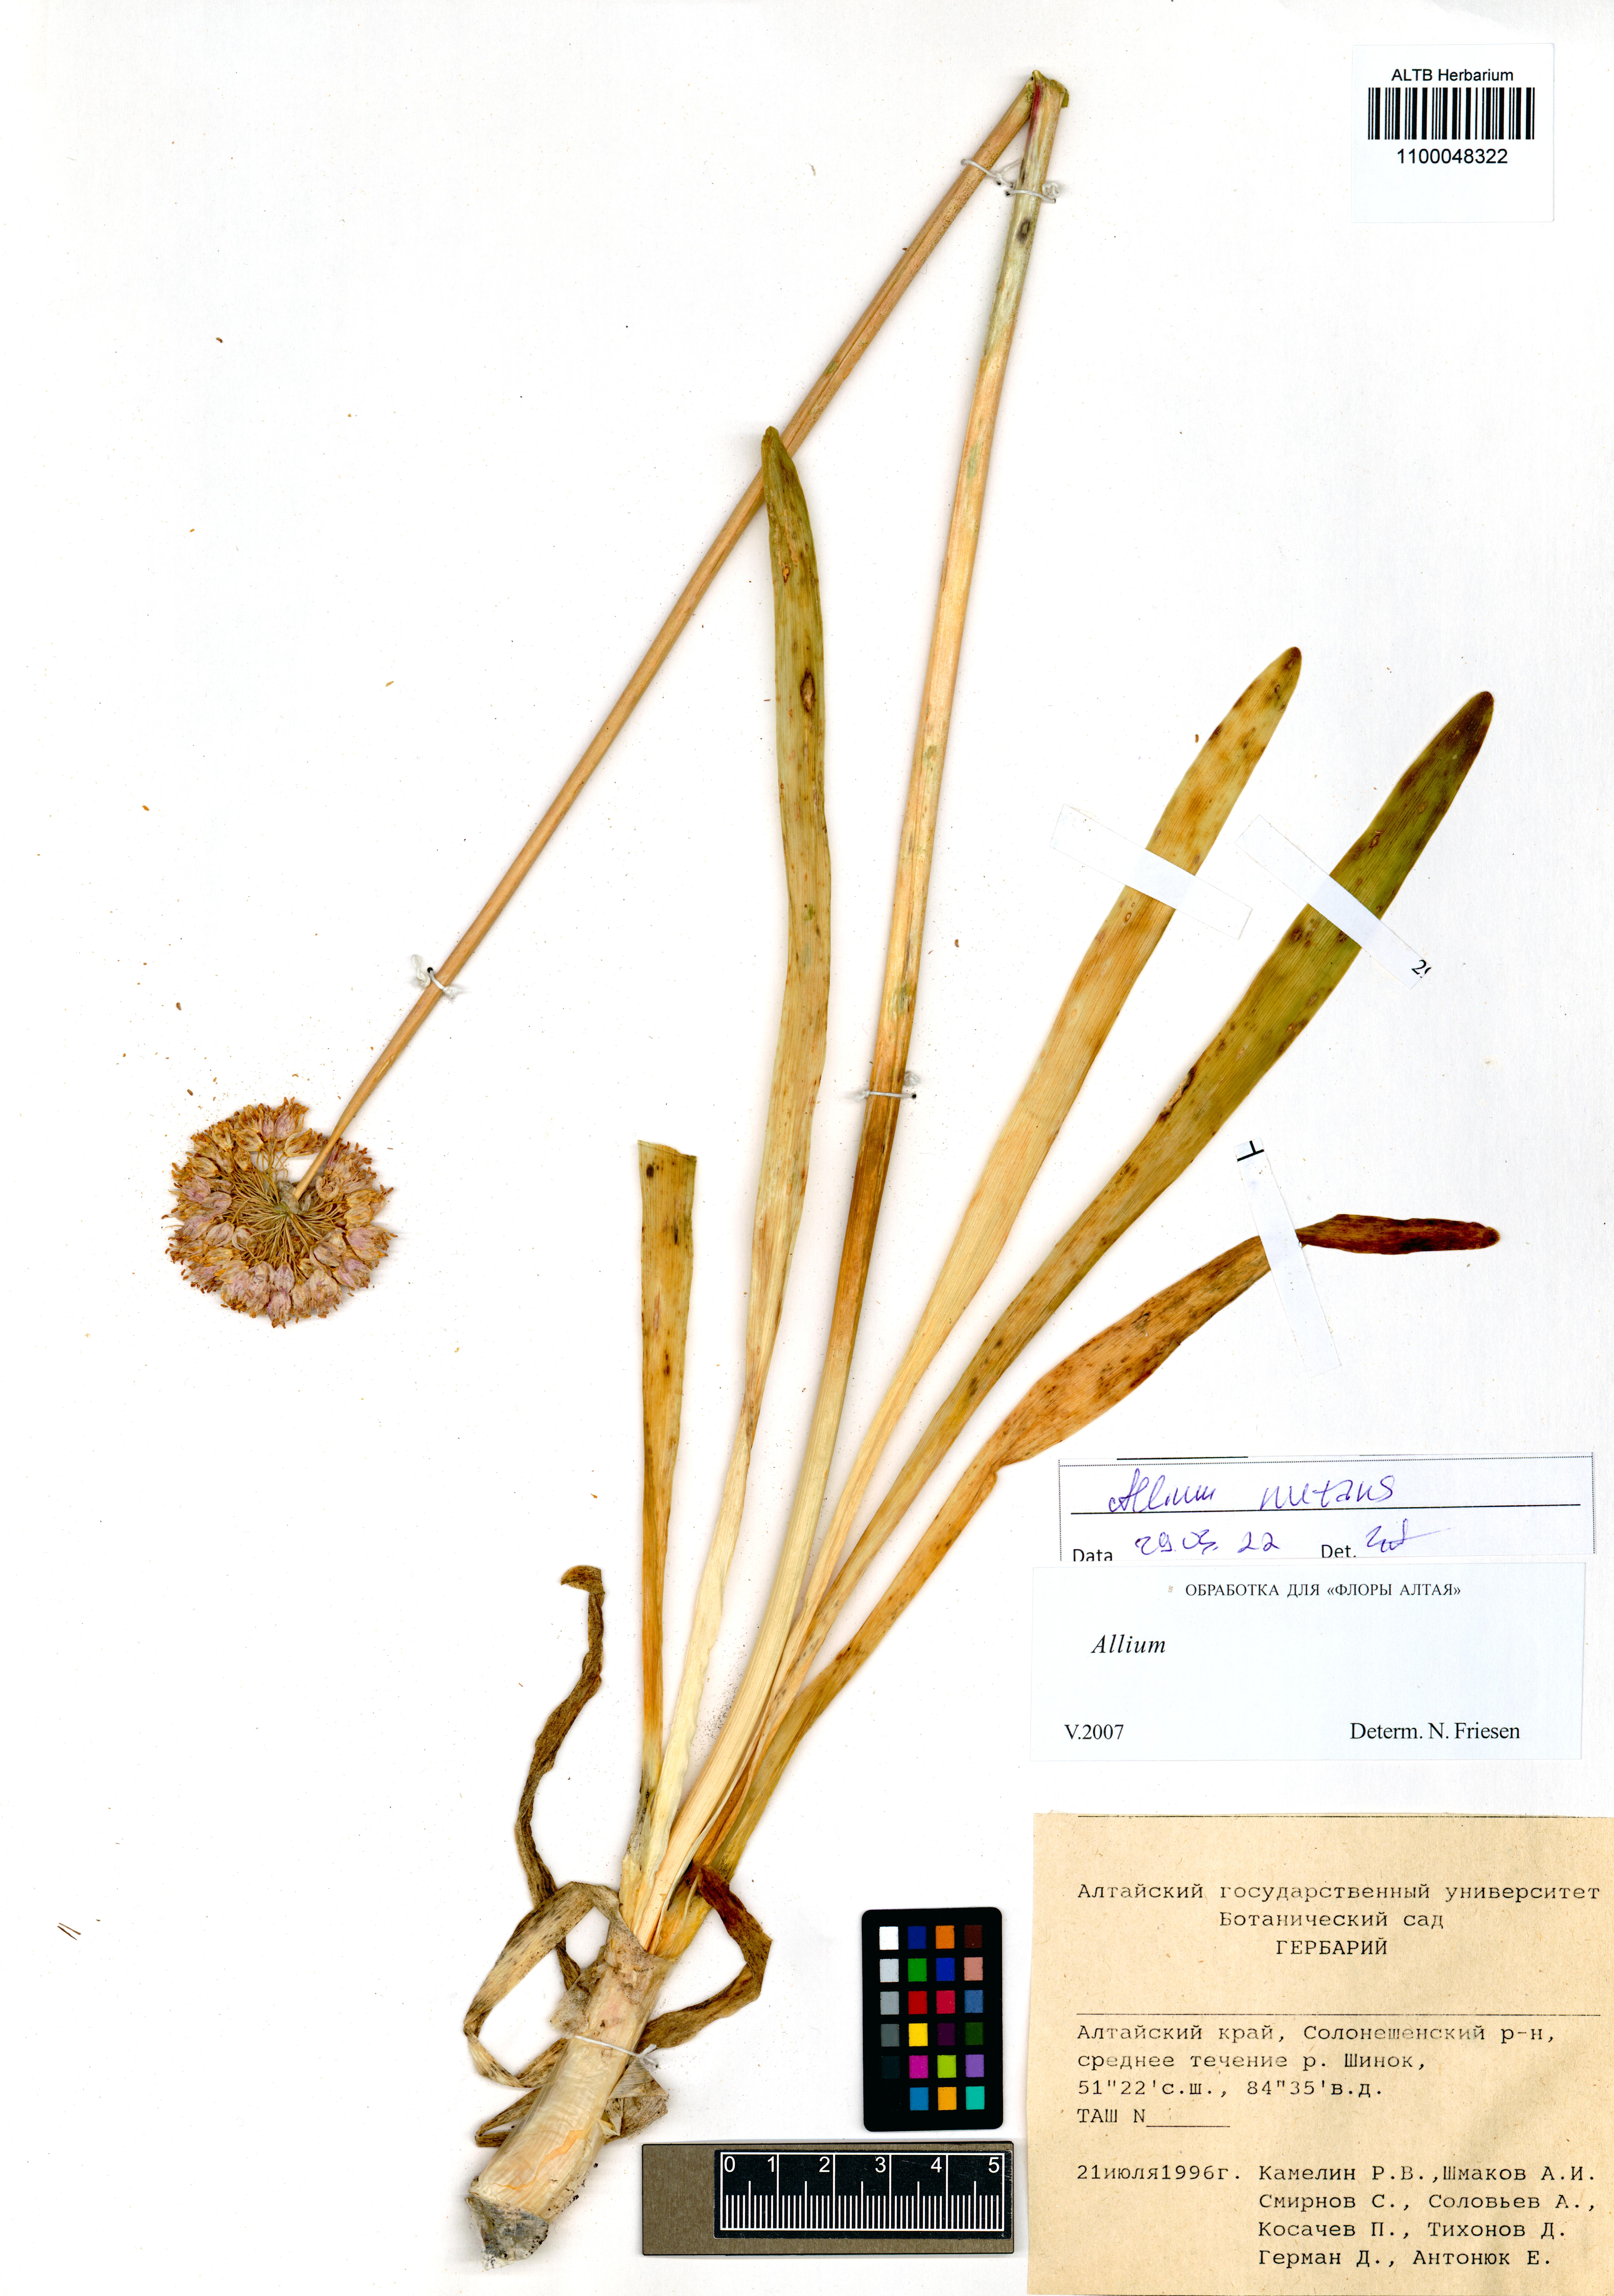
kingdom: Plantae
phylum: Tracheophyta
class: Liliopsida
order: Asparagales
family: Amaryllidaceae
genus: Allium
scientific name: Allium nutans
